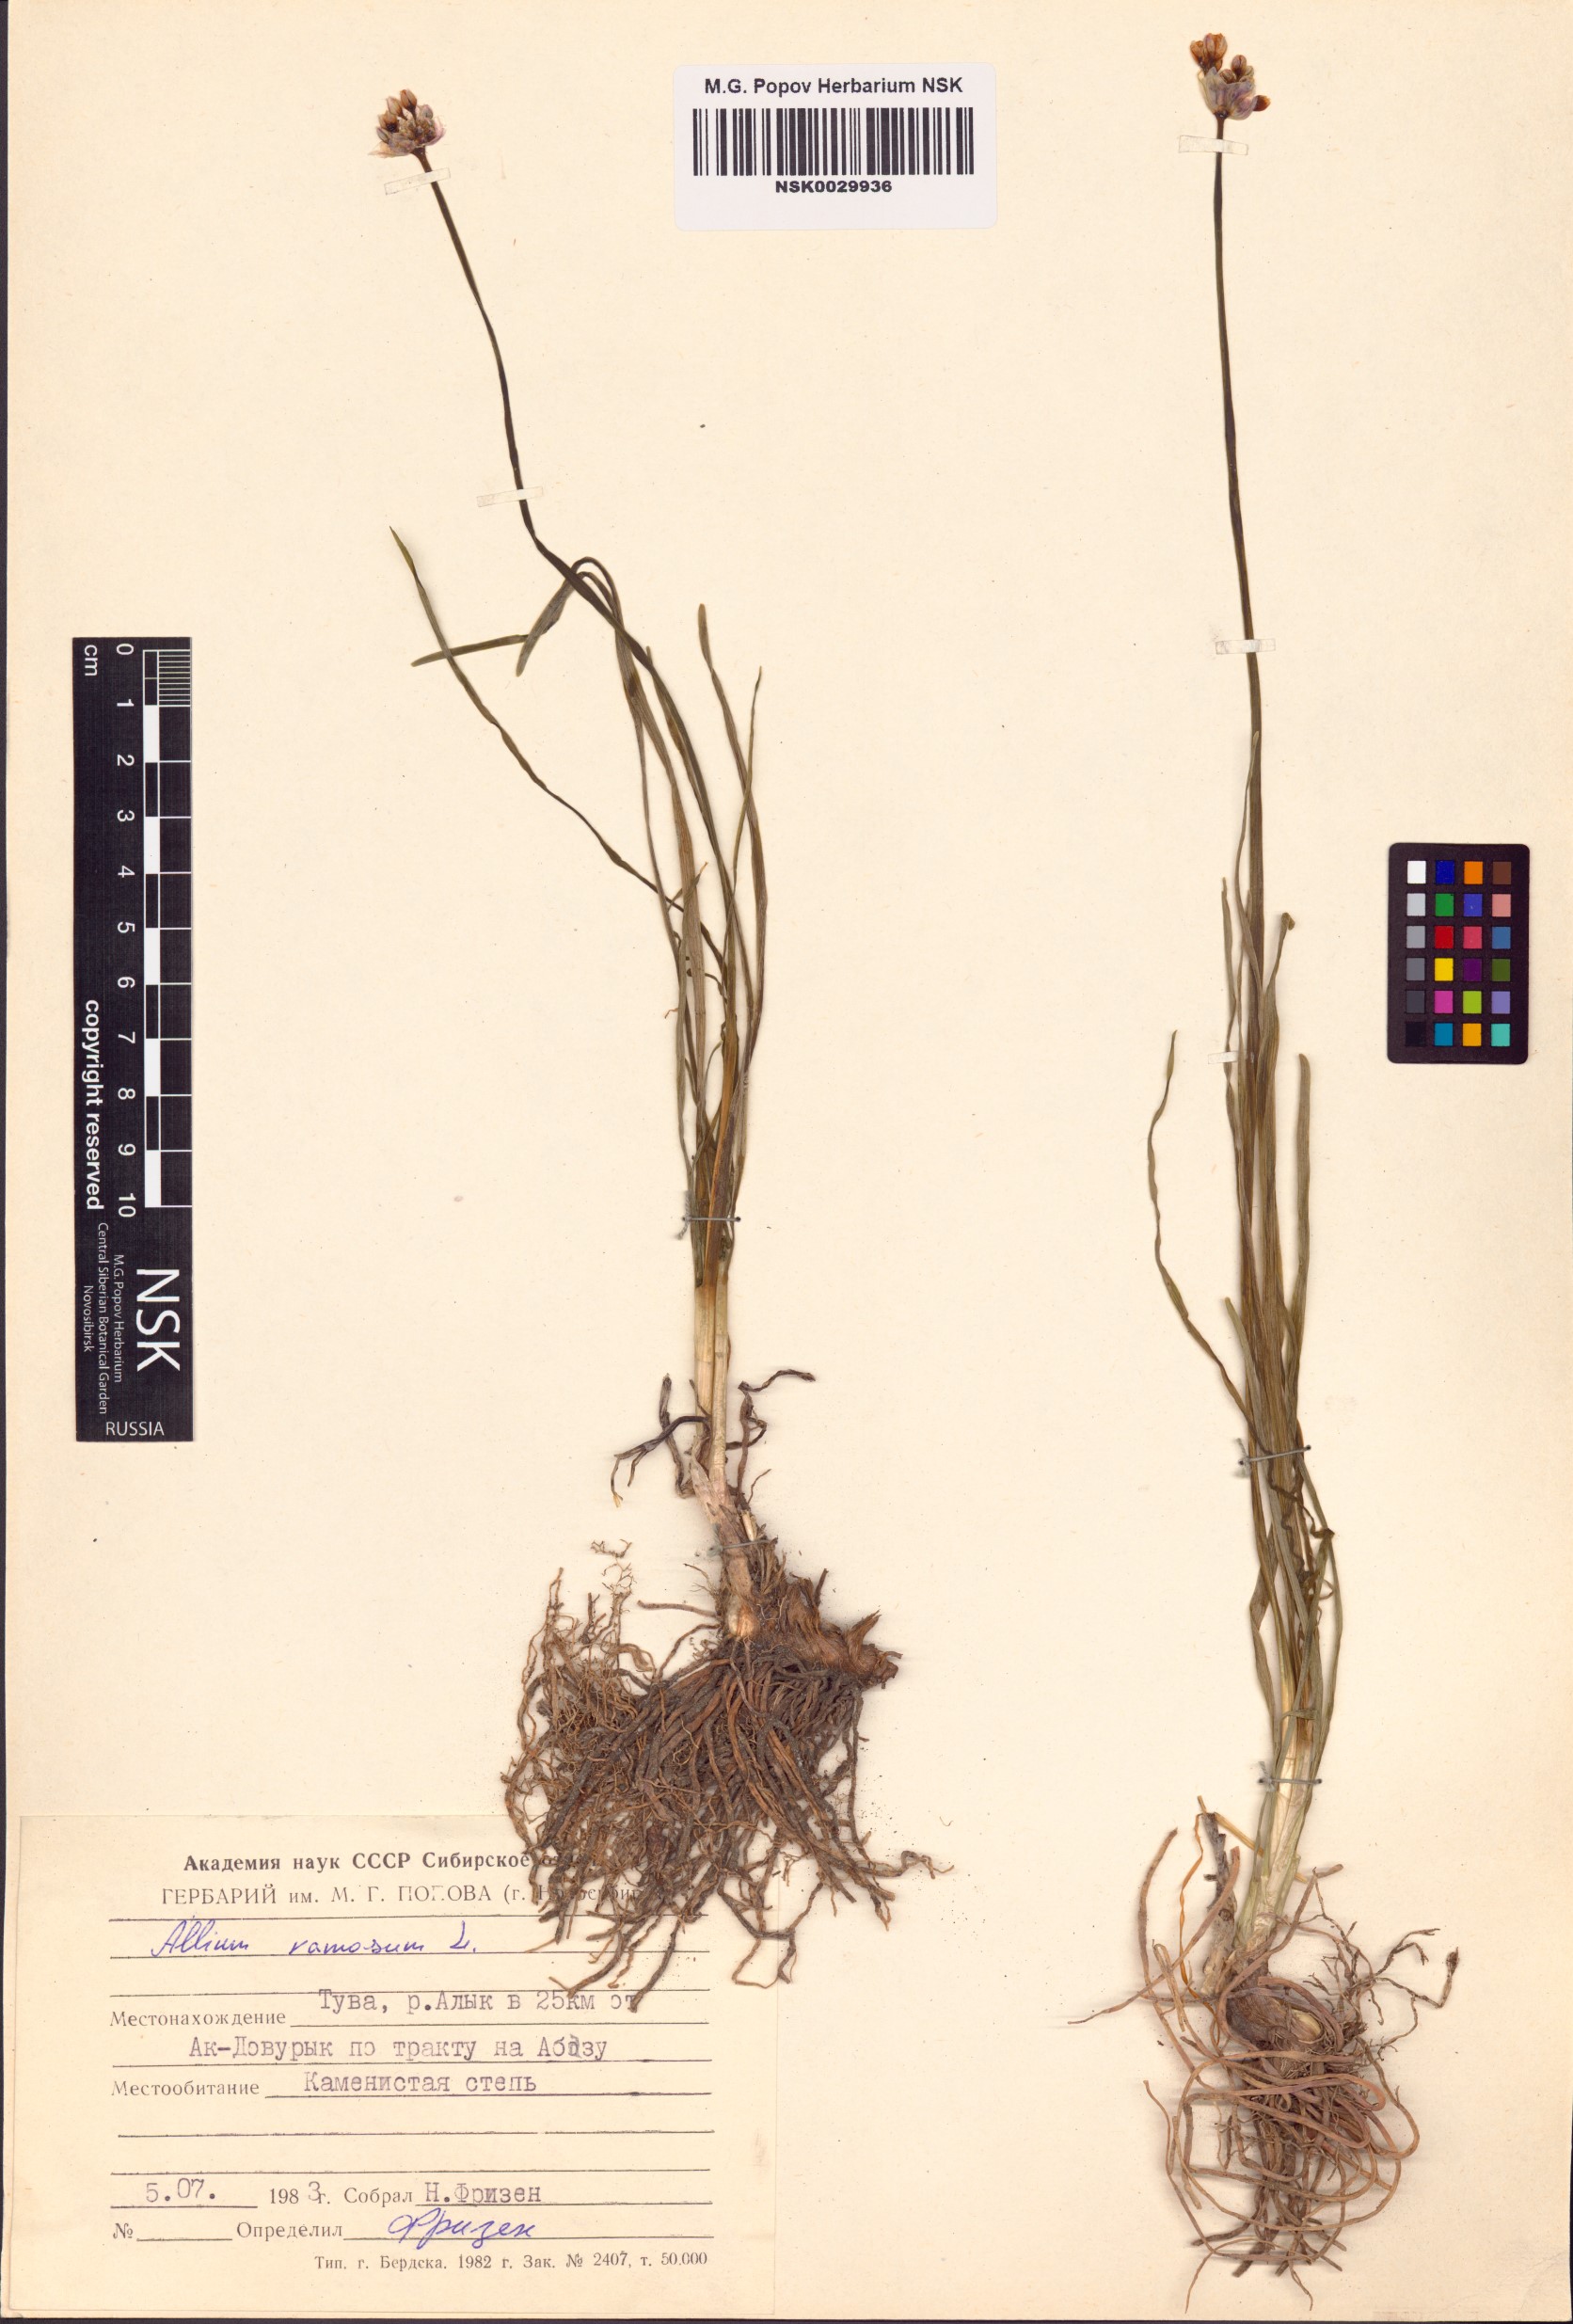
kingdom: Plantae
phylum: Tracheophyta
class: Liliopsida
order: Asparagales
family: Amaryllidaceae
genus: Allium
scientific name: Allium ramosum
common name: Fragrant garlic
